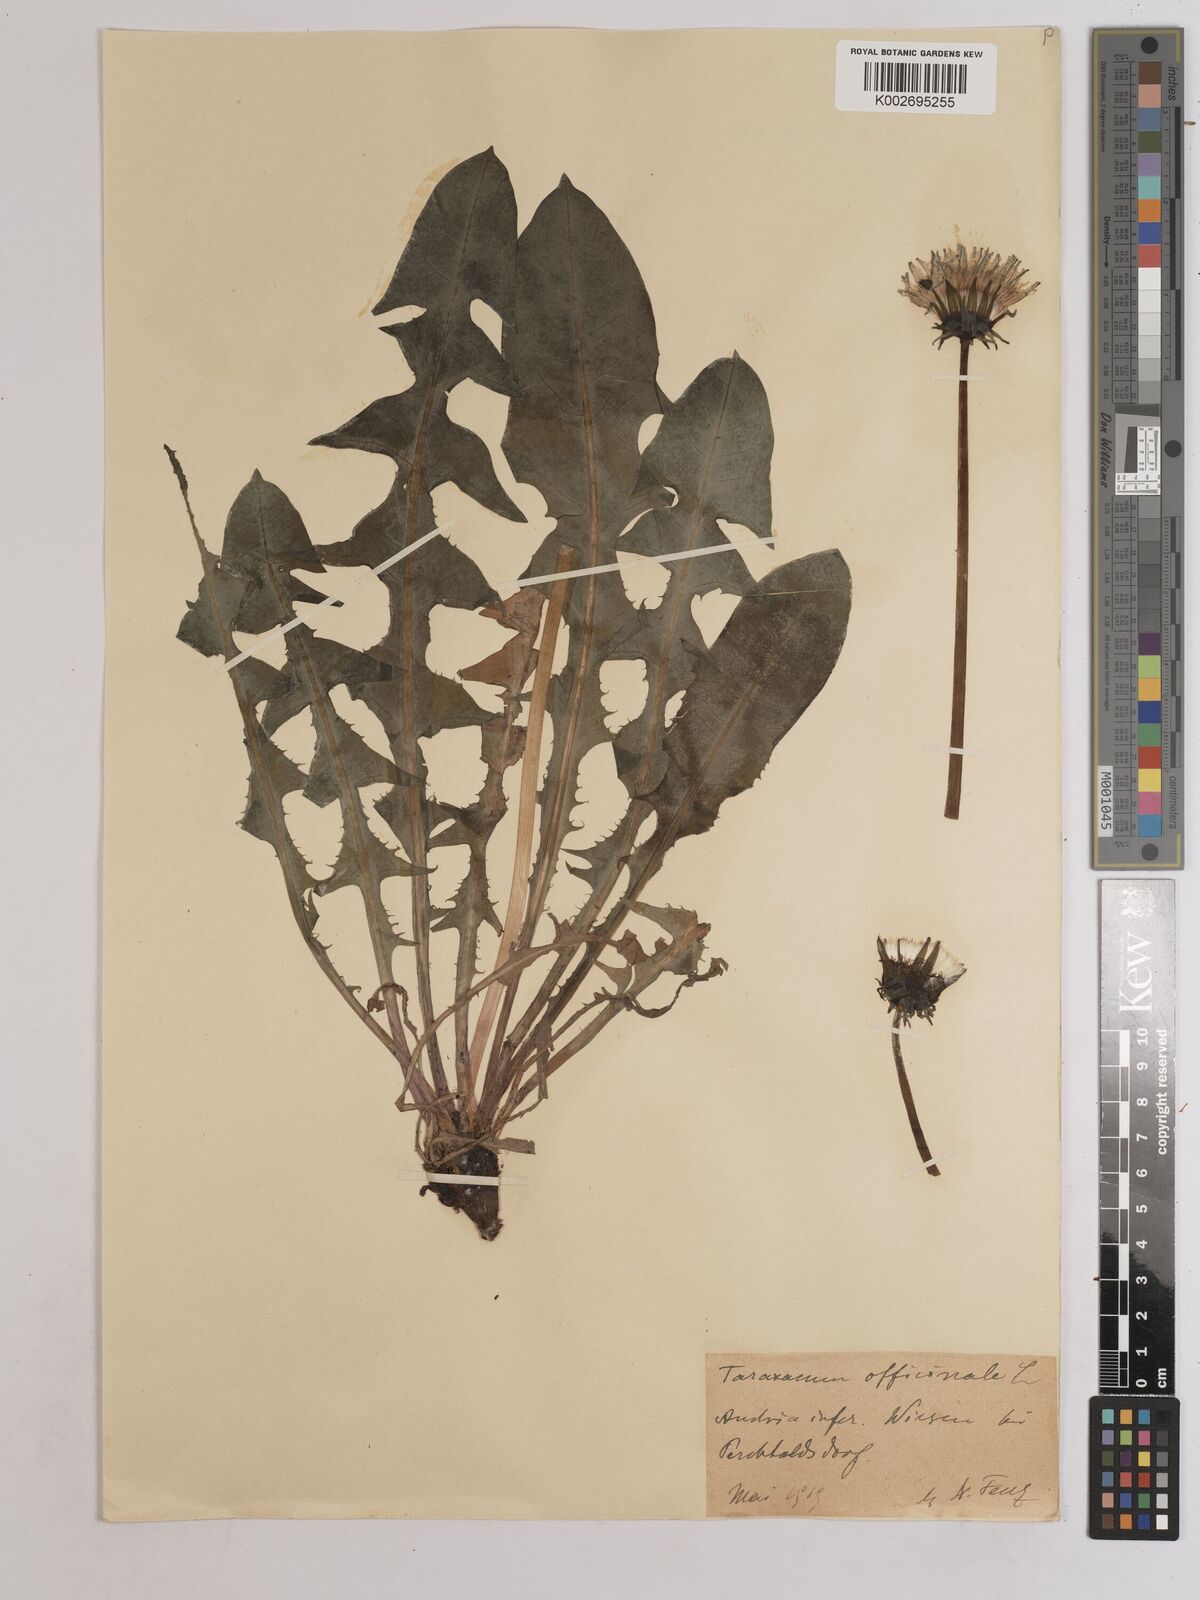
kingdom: Plantae
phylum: Tracheophyta
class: Magnoliopsida
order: Asterales
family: Asteraceae
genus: Taraxacum
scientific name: Taraxacum officinale
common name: Common dandelion
